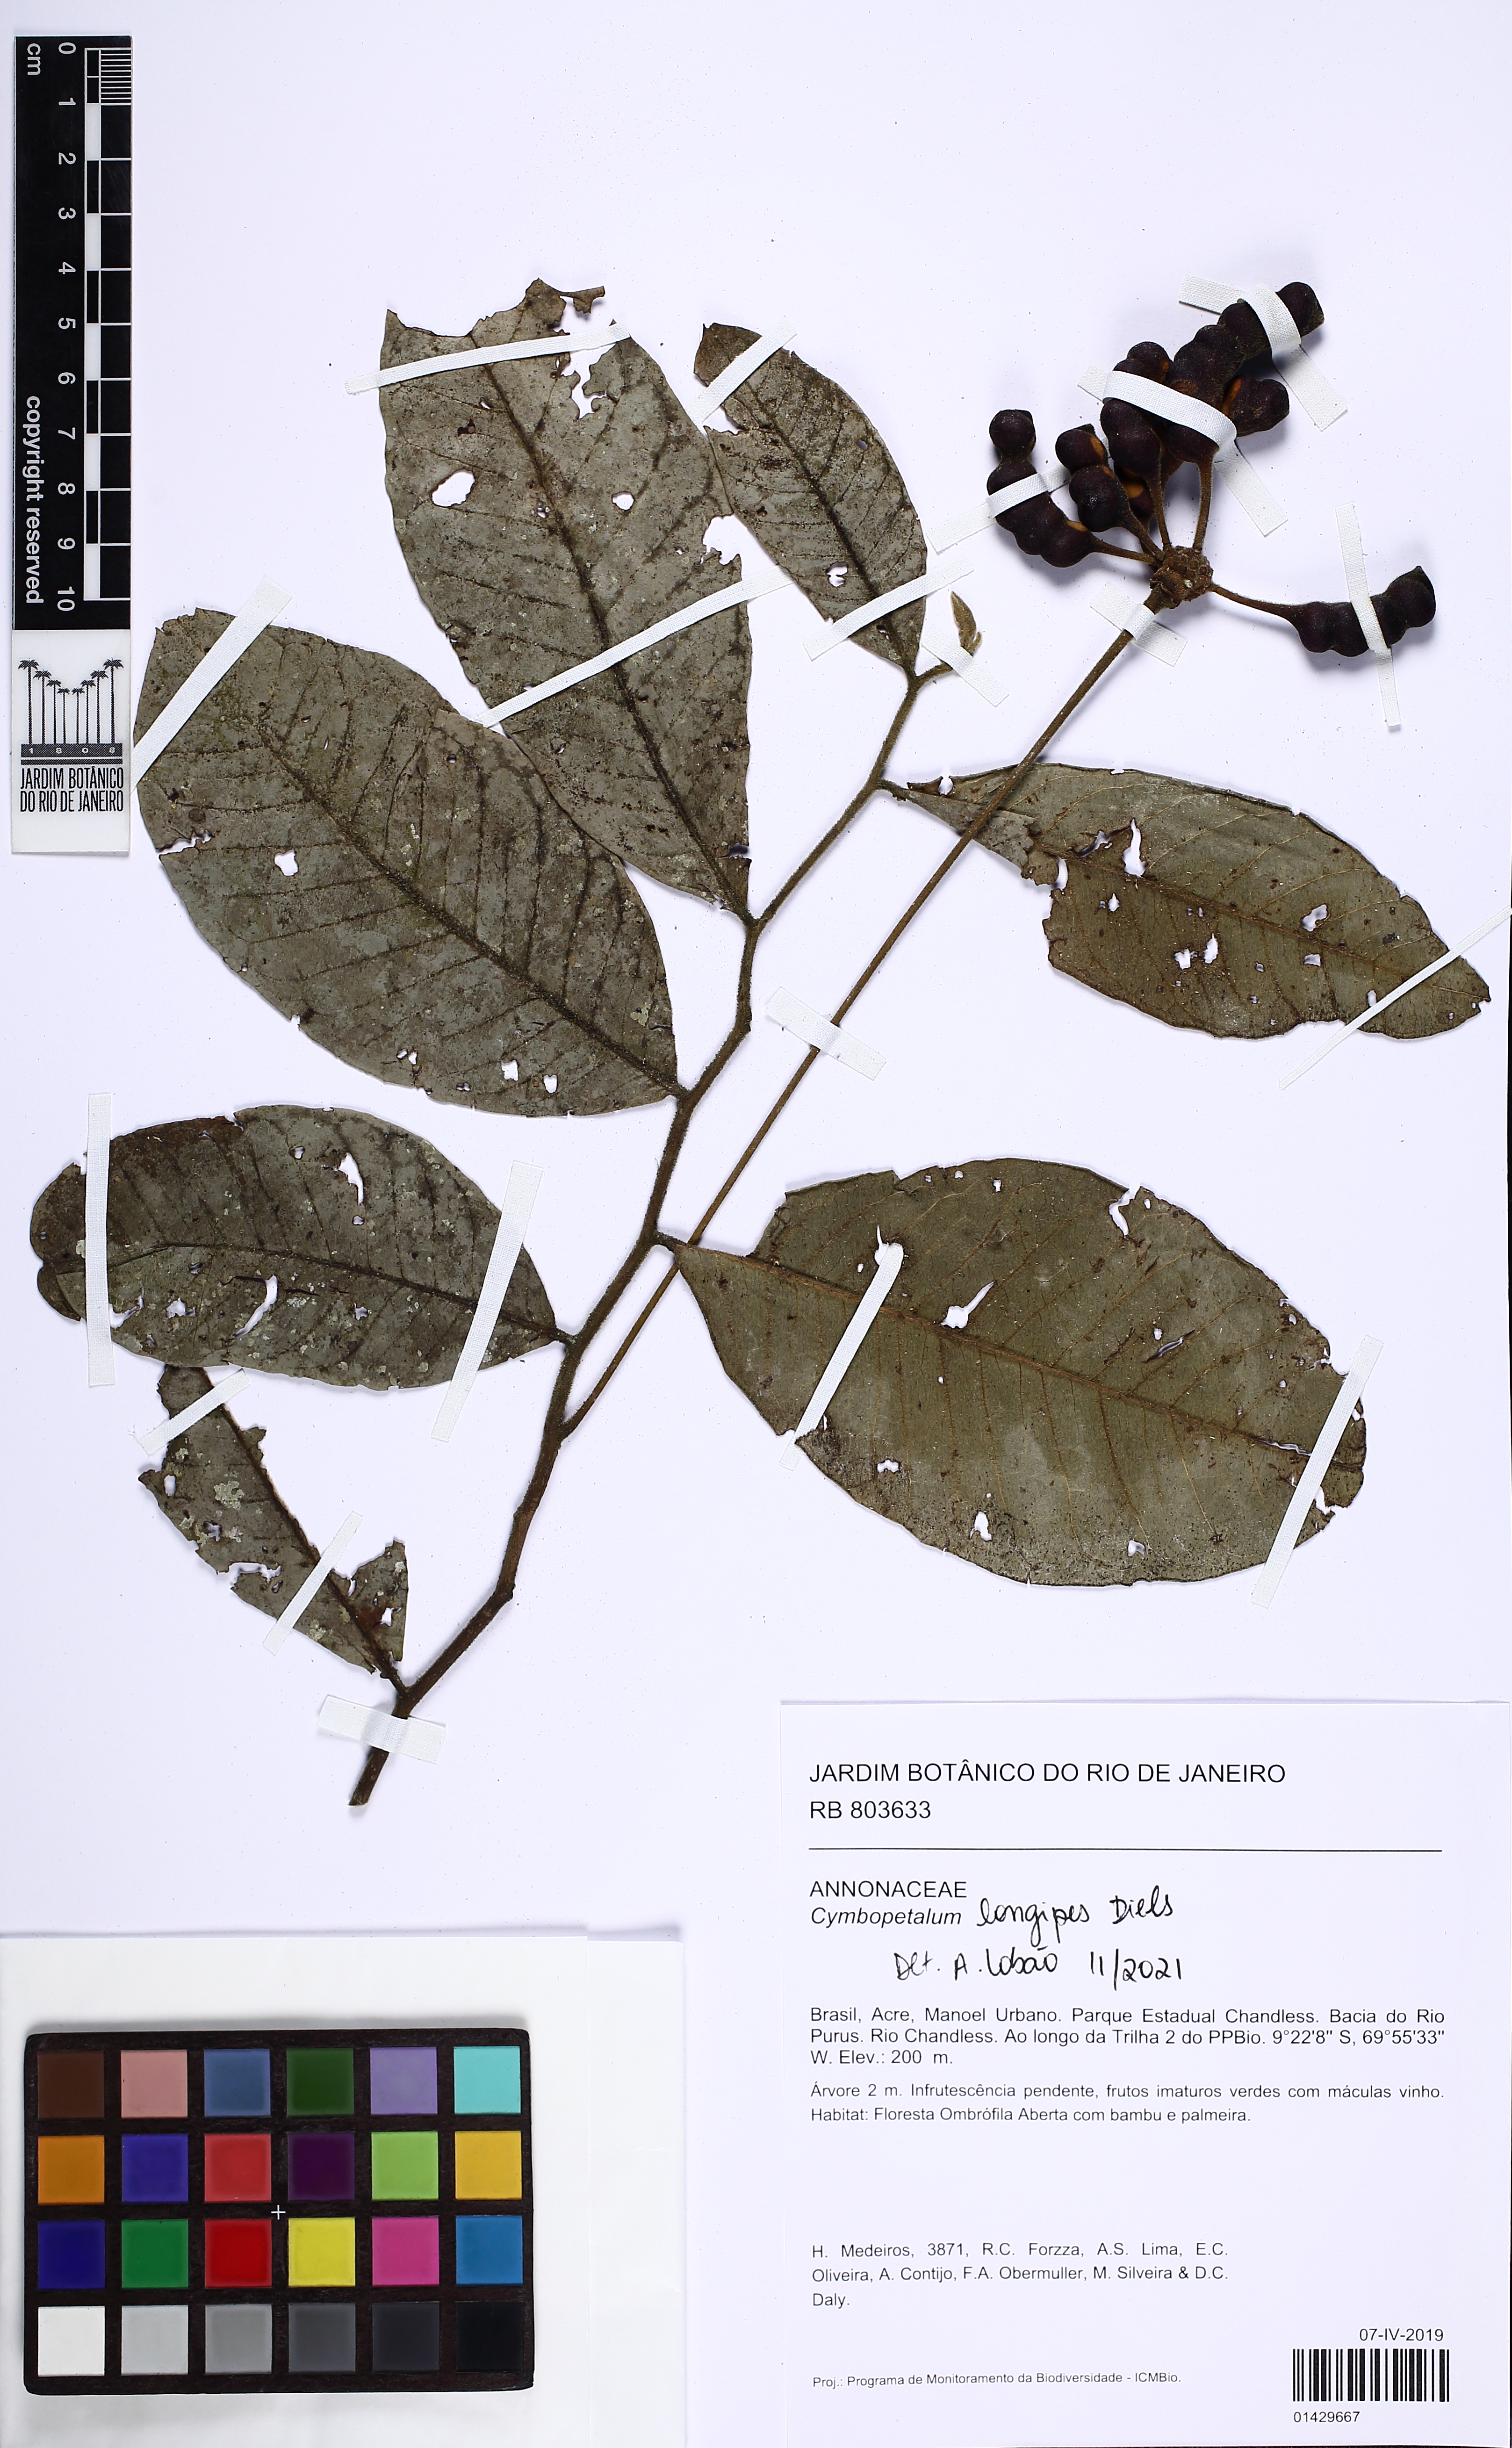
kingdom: Plantae
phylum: Tracheophyta
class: Magnoliopsida
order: Magnoliales
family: Annonaceae
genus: Cymbopetalum
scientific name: Cymbopetalum longipes
